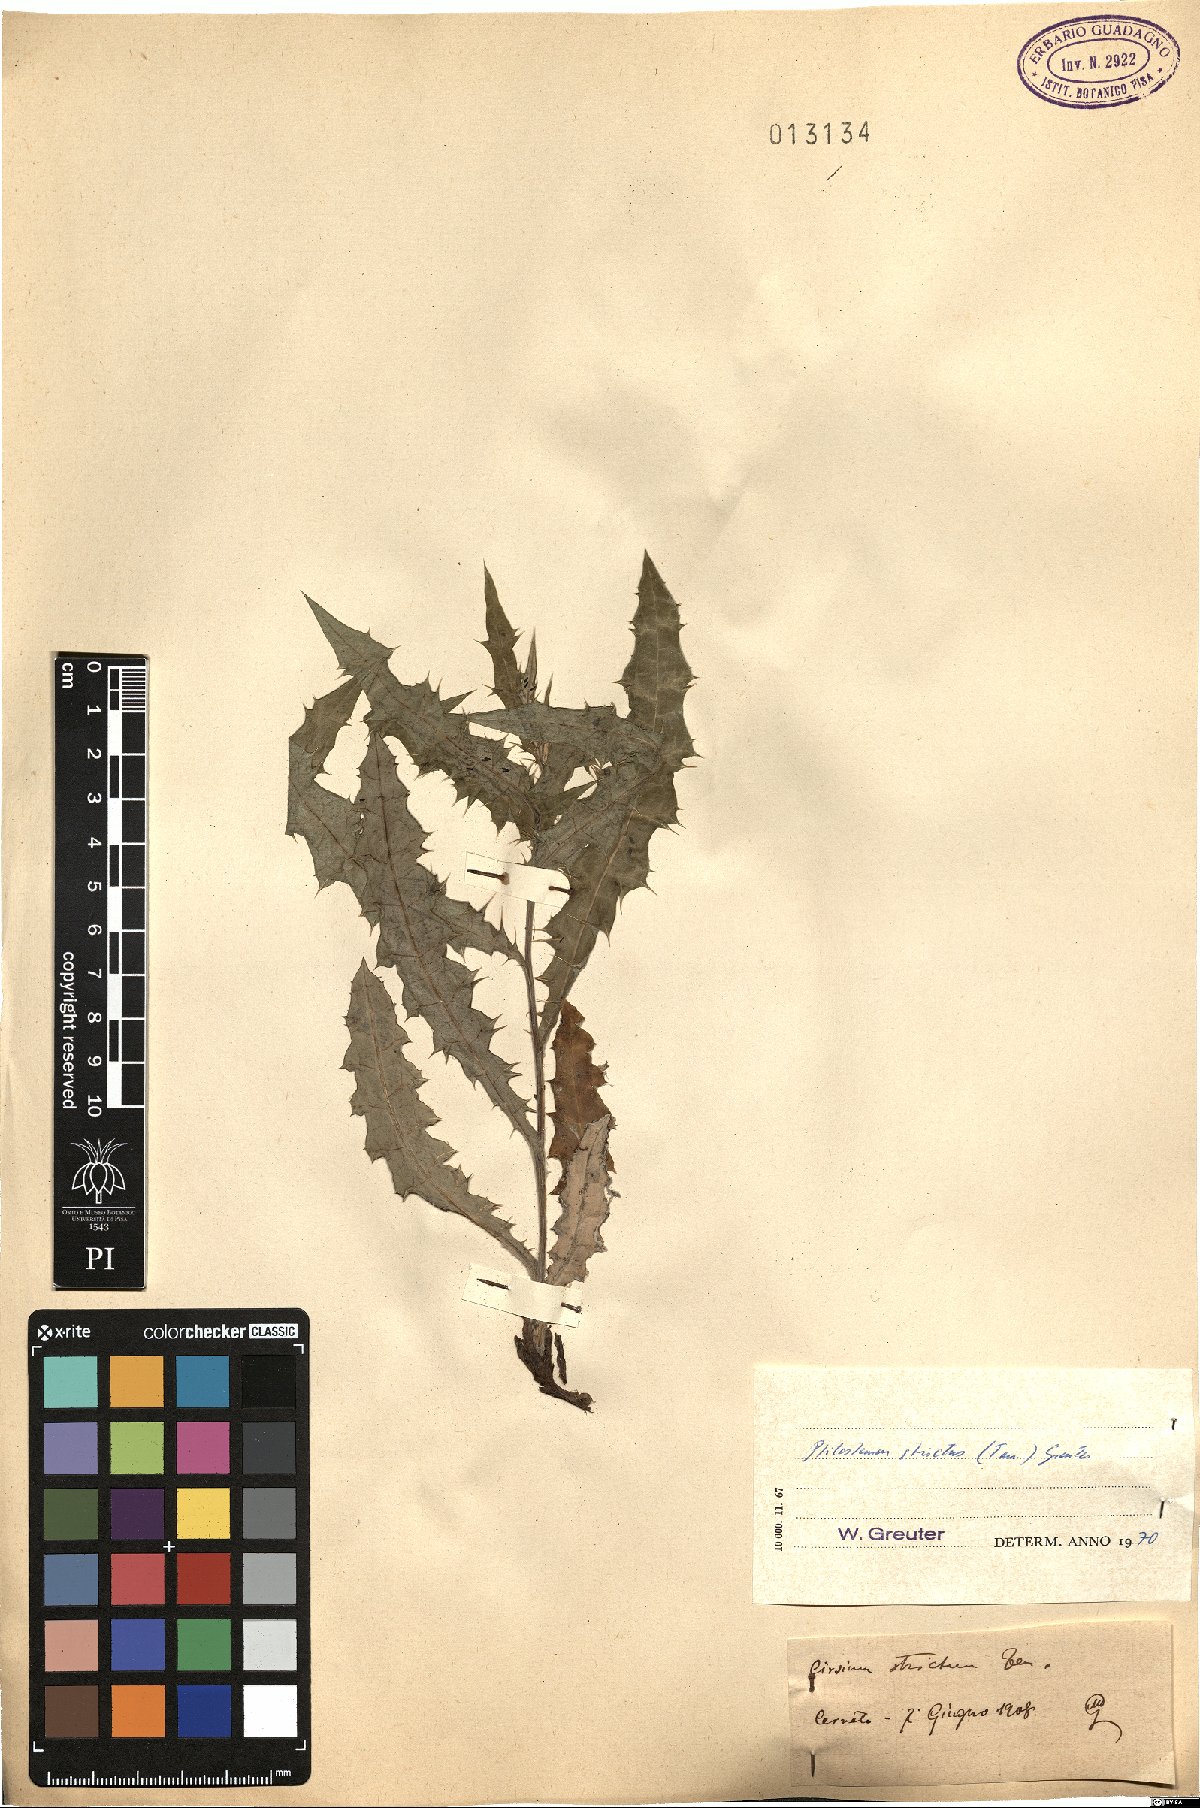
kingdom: Plantae
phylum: Tracheophyta
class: Magnoliopsida
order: Asterales
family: Asteraceae
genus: Ptilostemon
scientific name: Ptilostemon strictus
